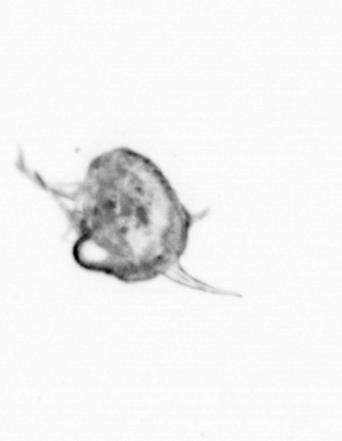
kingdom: Animalia
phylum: Arthropoda
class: Copepoda
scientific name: Copepoda
